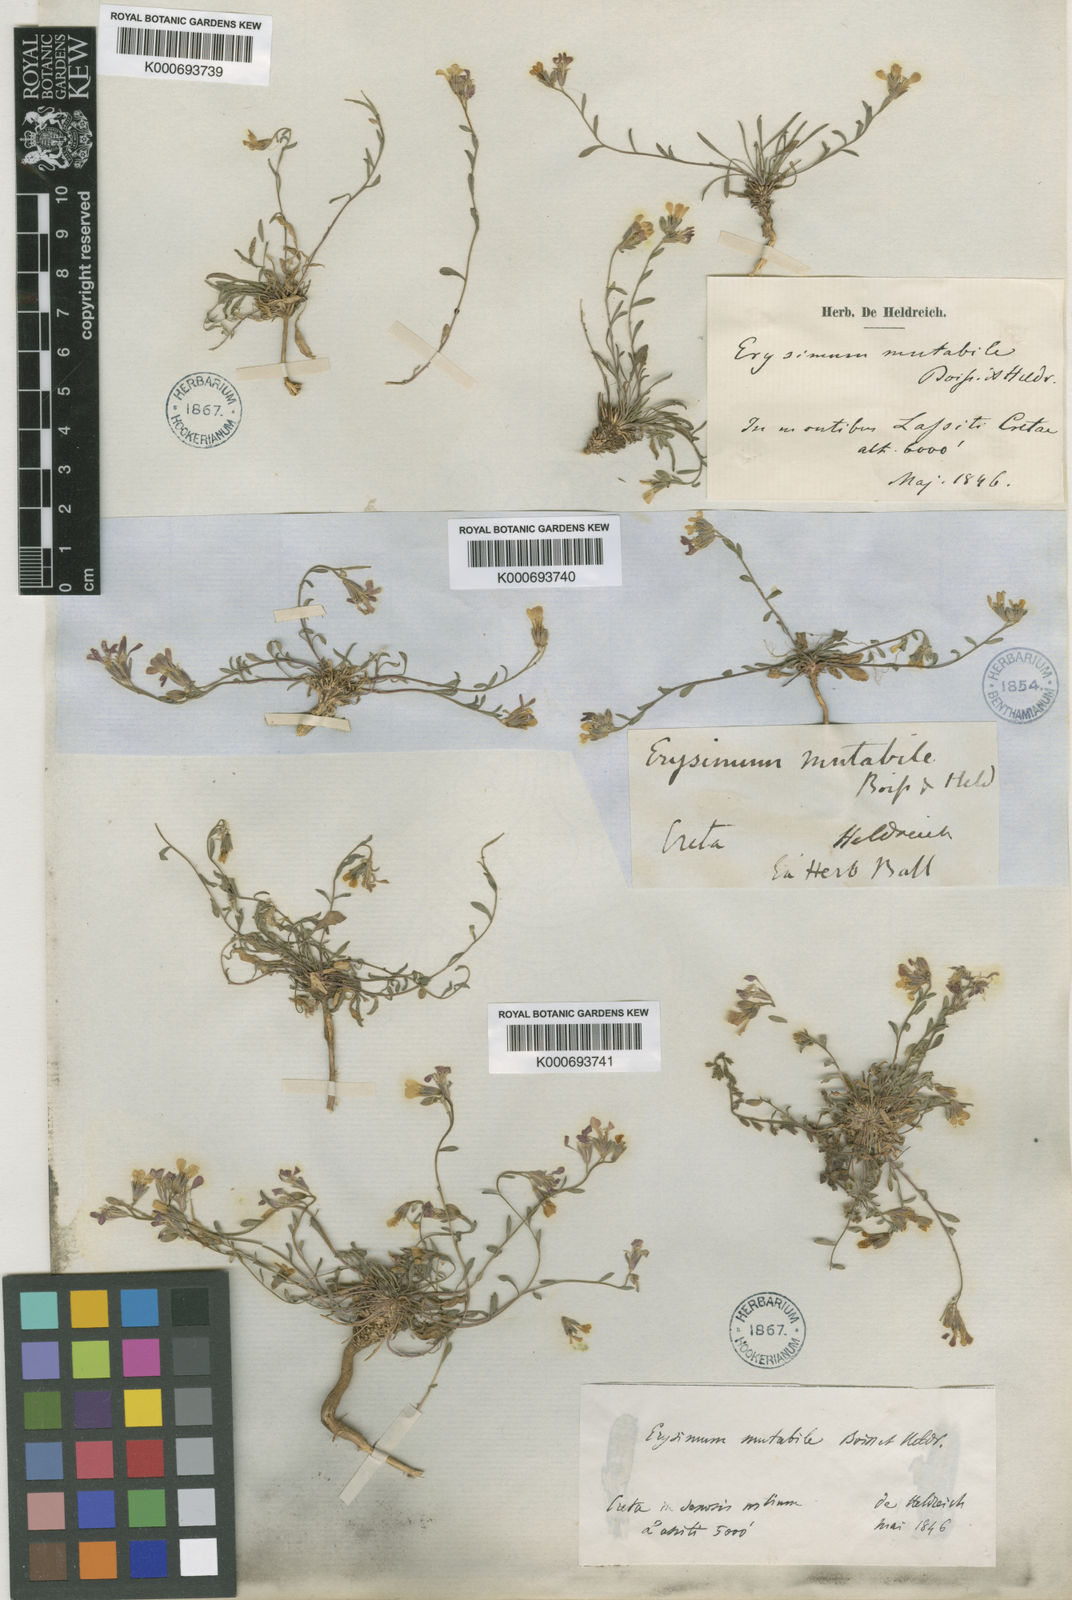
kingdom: Plantae
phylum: Tracheophyta
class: Magnoliopsida
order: Brassicales
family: Brassicaceae
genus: Erysimum
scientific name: Erysimum mutabile
